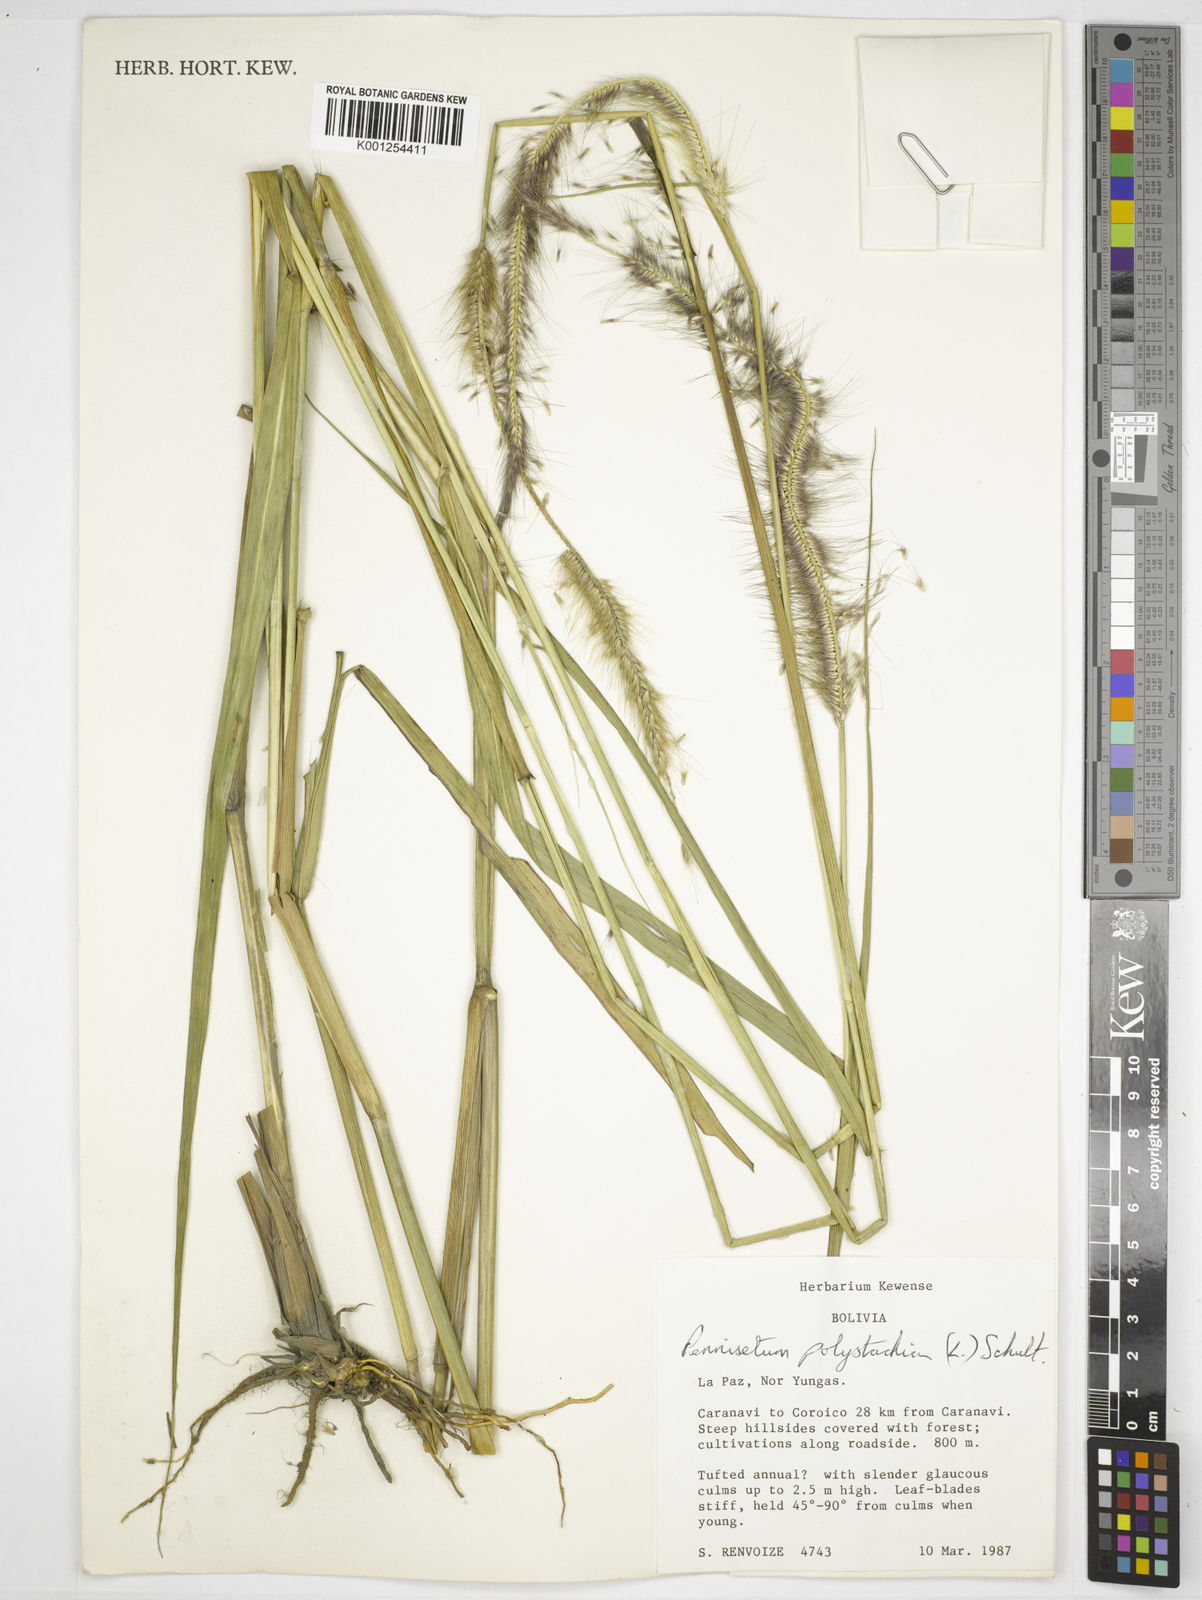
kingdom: Plantae
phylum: Tracheophyta
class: Liliopsida
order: Poales
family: Poaceae
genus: Setaria
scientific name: Setaria parviflora
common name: Knotroot bristle-grass
